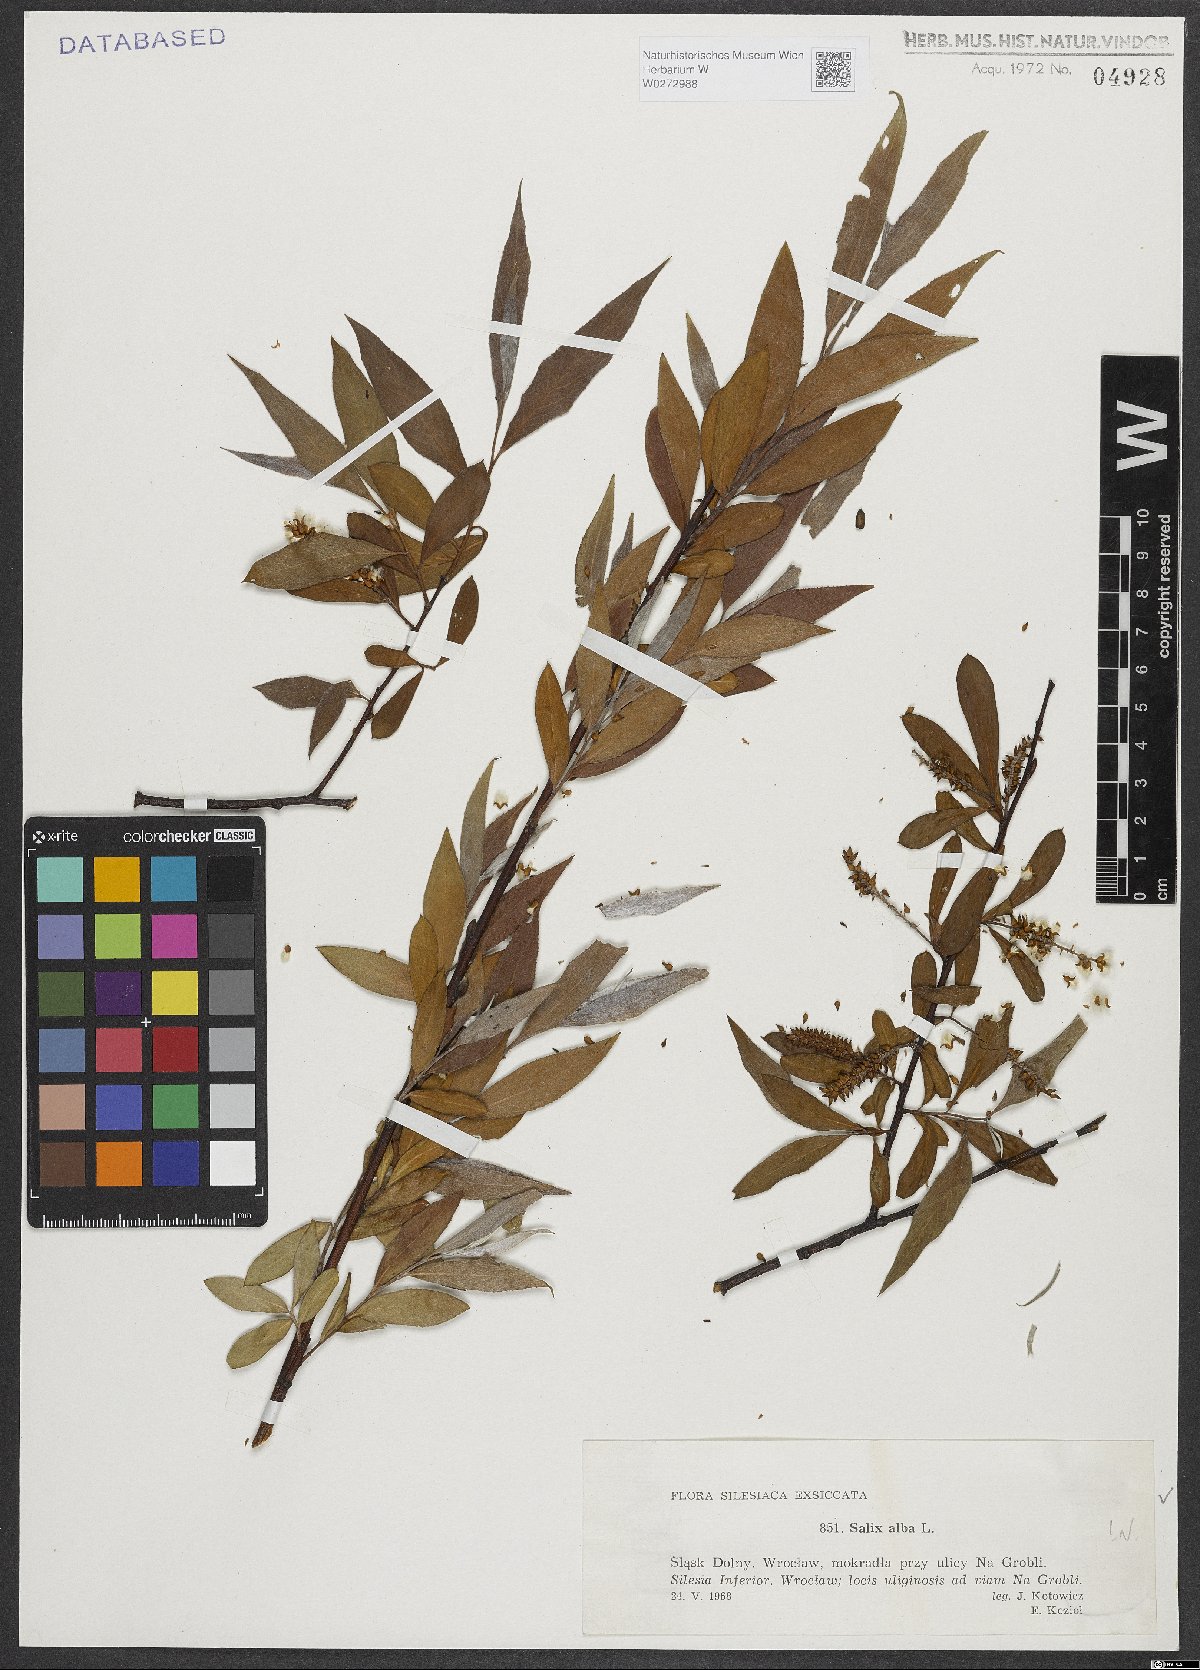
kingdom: Plantae
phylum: Tracheophyta
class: Magnoliopsida
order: Malpighiales
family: Salicaceae
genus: Salix
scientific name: Salix alba
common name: White willow
